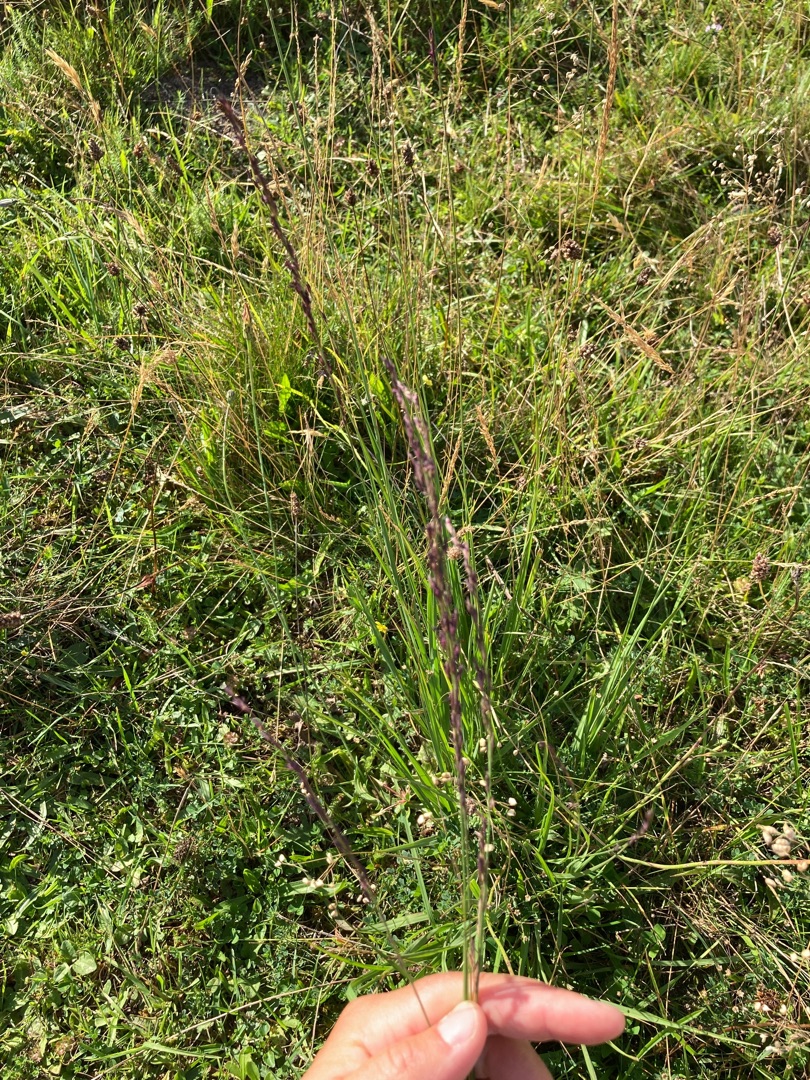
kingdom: Plantae
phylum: Tracheophyta
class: Liliopsida
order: Poales
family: Poaceae
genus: Molinia
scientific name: Molinia caerulea
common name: Blåtop
